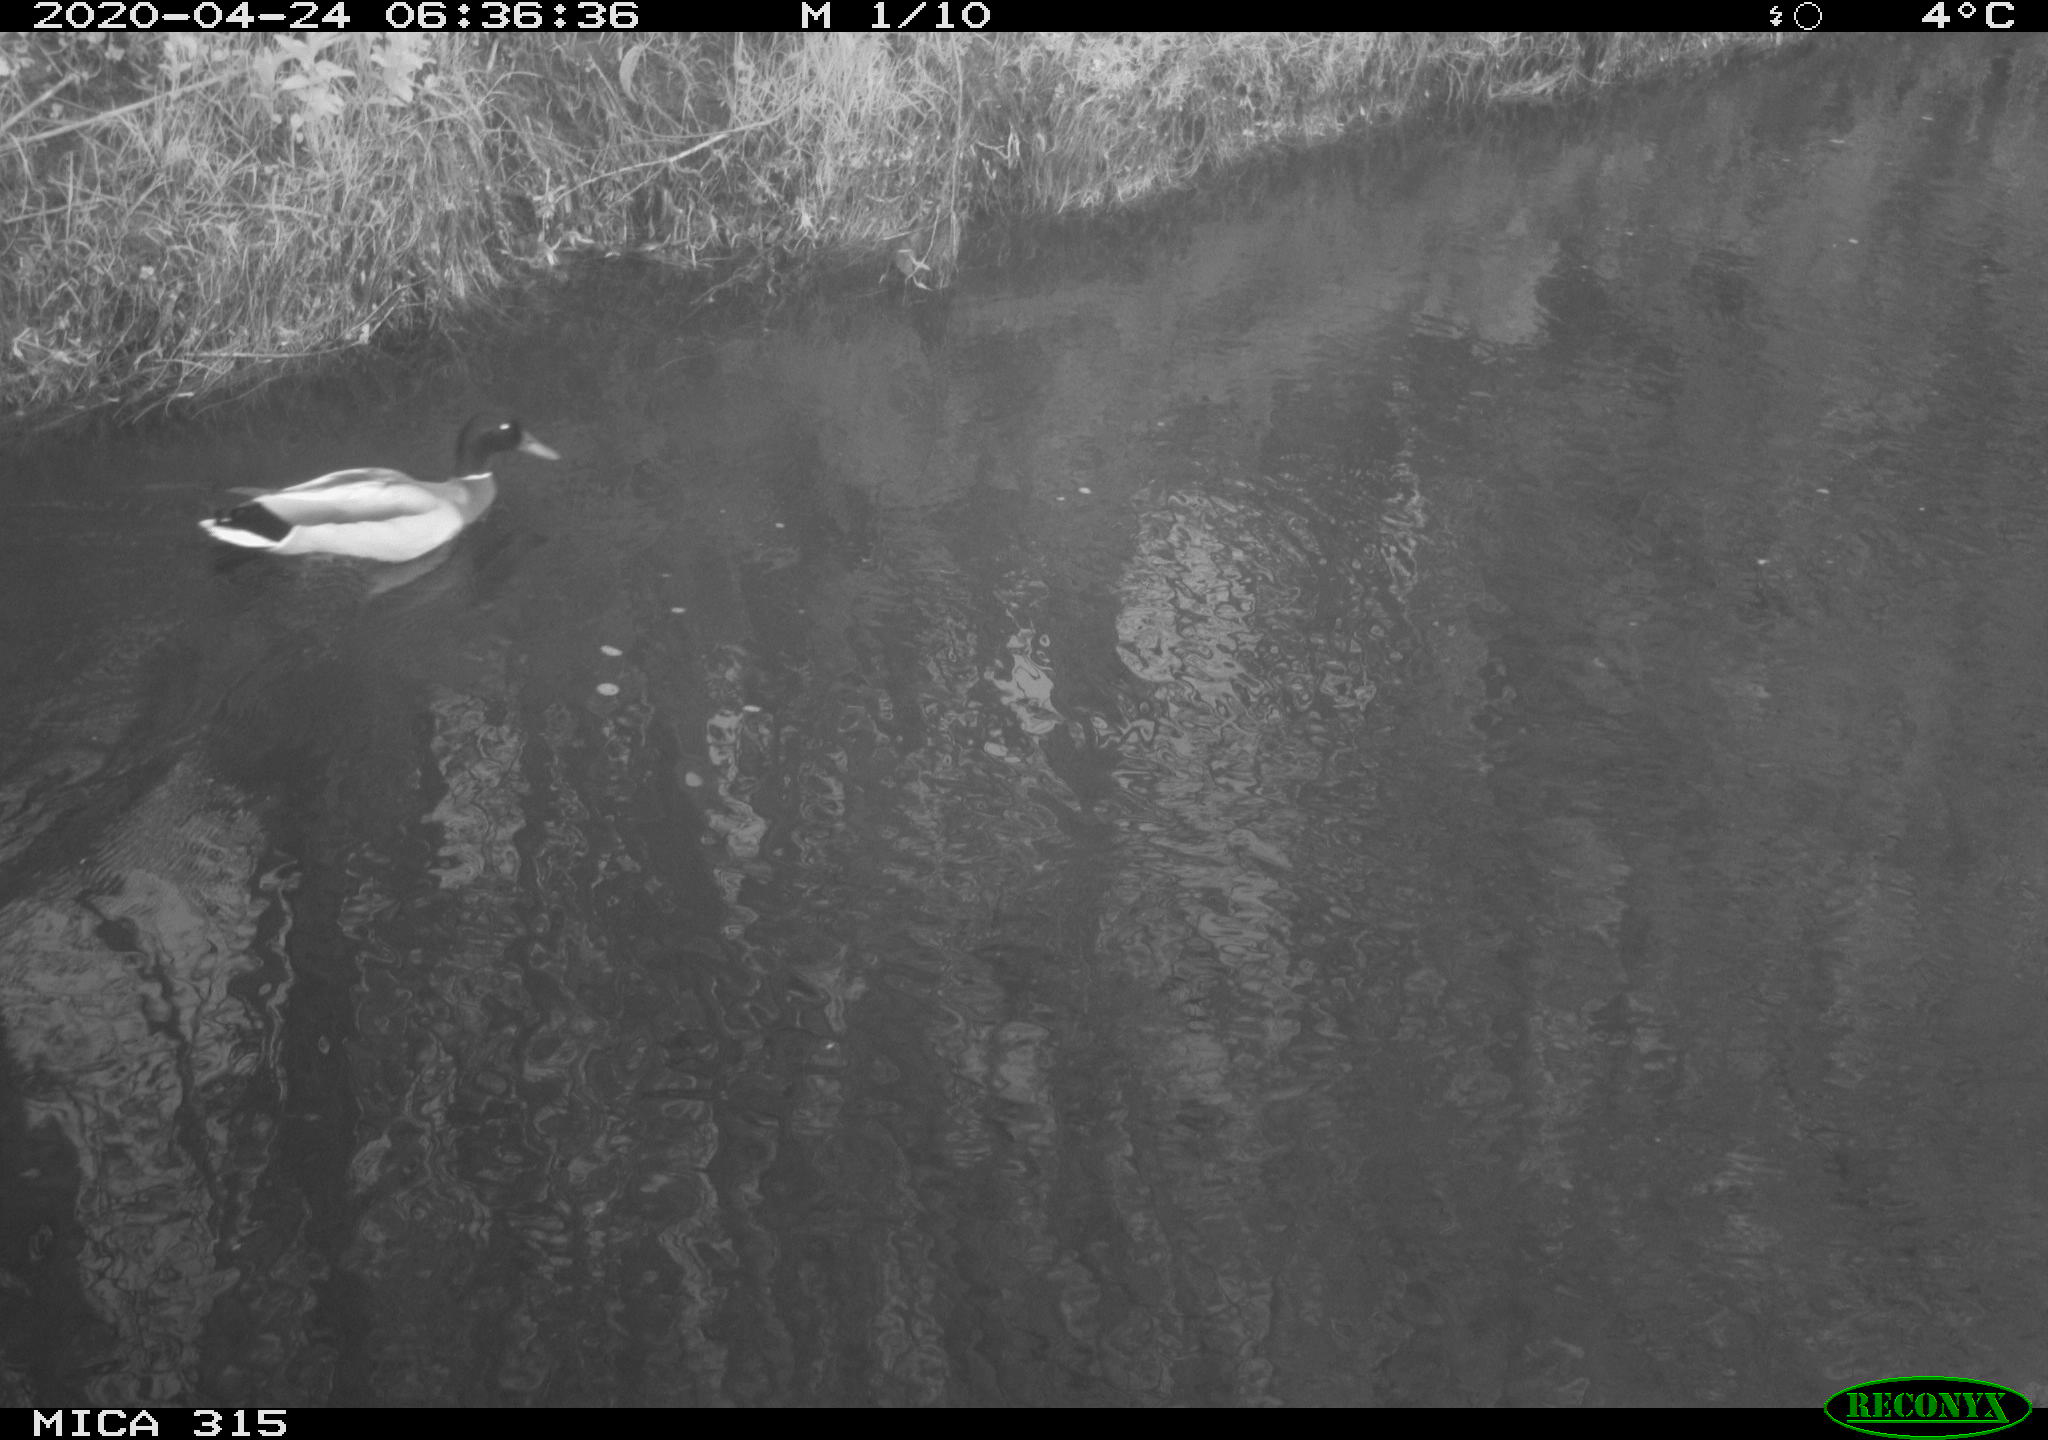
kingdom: Animalia
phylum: Chordata
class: Aves
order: Anseriformes
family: Anatidae
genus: Anas
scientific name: Anas platyrhynchos
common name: Mallard
